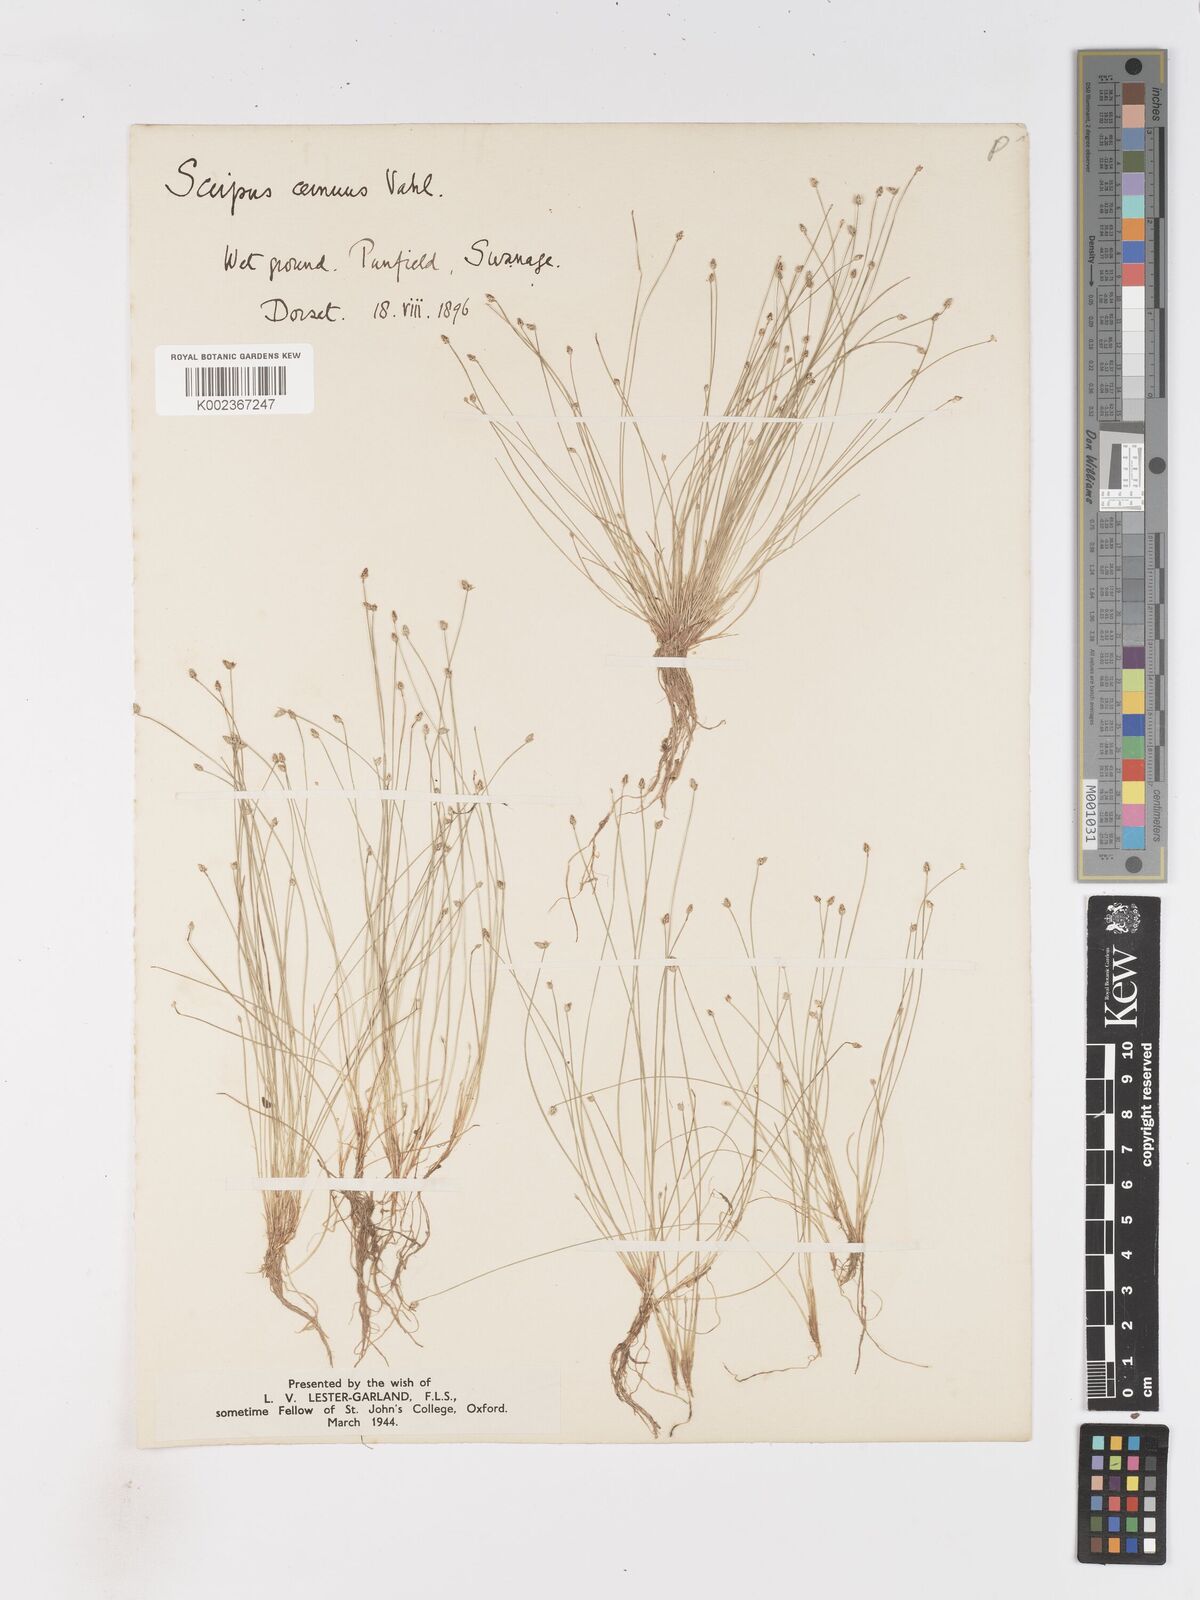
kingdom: Plantae
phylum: Tracheophyta
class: Liliopsida
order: Poales
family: Cyperaceae
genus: Isolepis
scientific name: Isolepis cernua
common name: Slender club-rush
